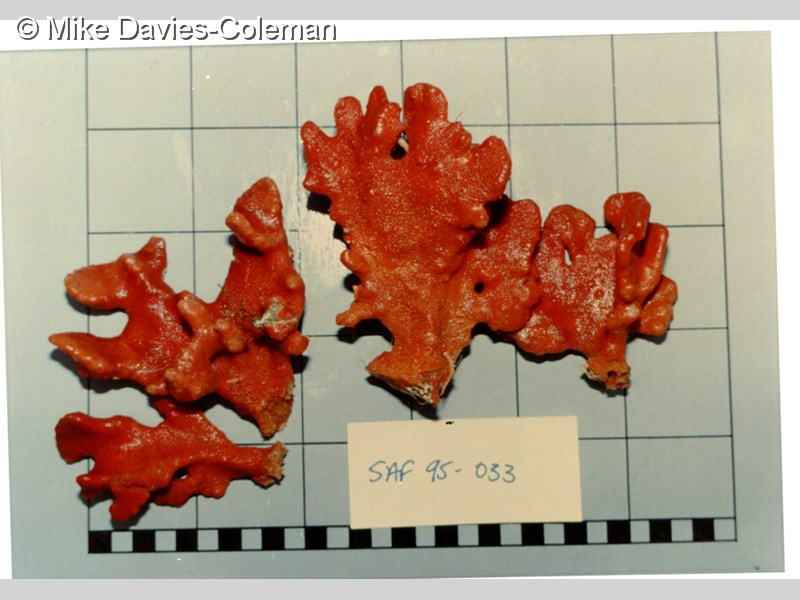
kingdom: Animalia
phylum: Porifera
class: Demospongiae
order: Poecilosclerida
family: Hymedesmiidae
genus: Phorbas
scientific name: Phorbas clathratus
